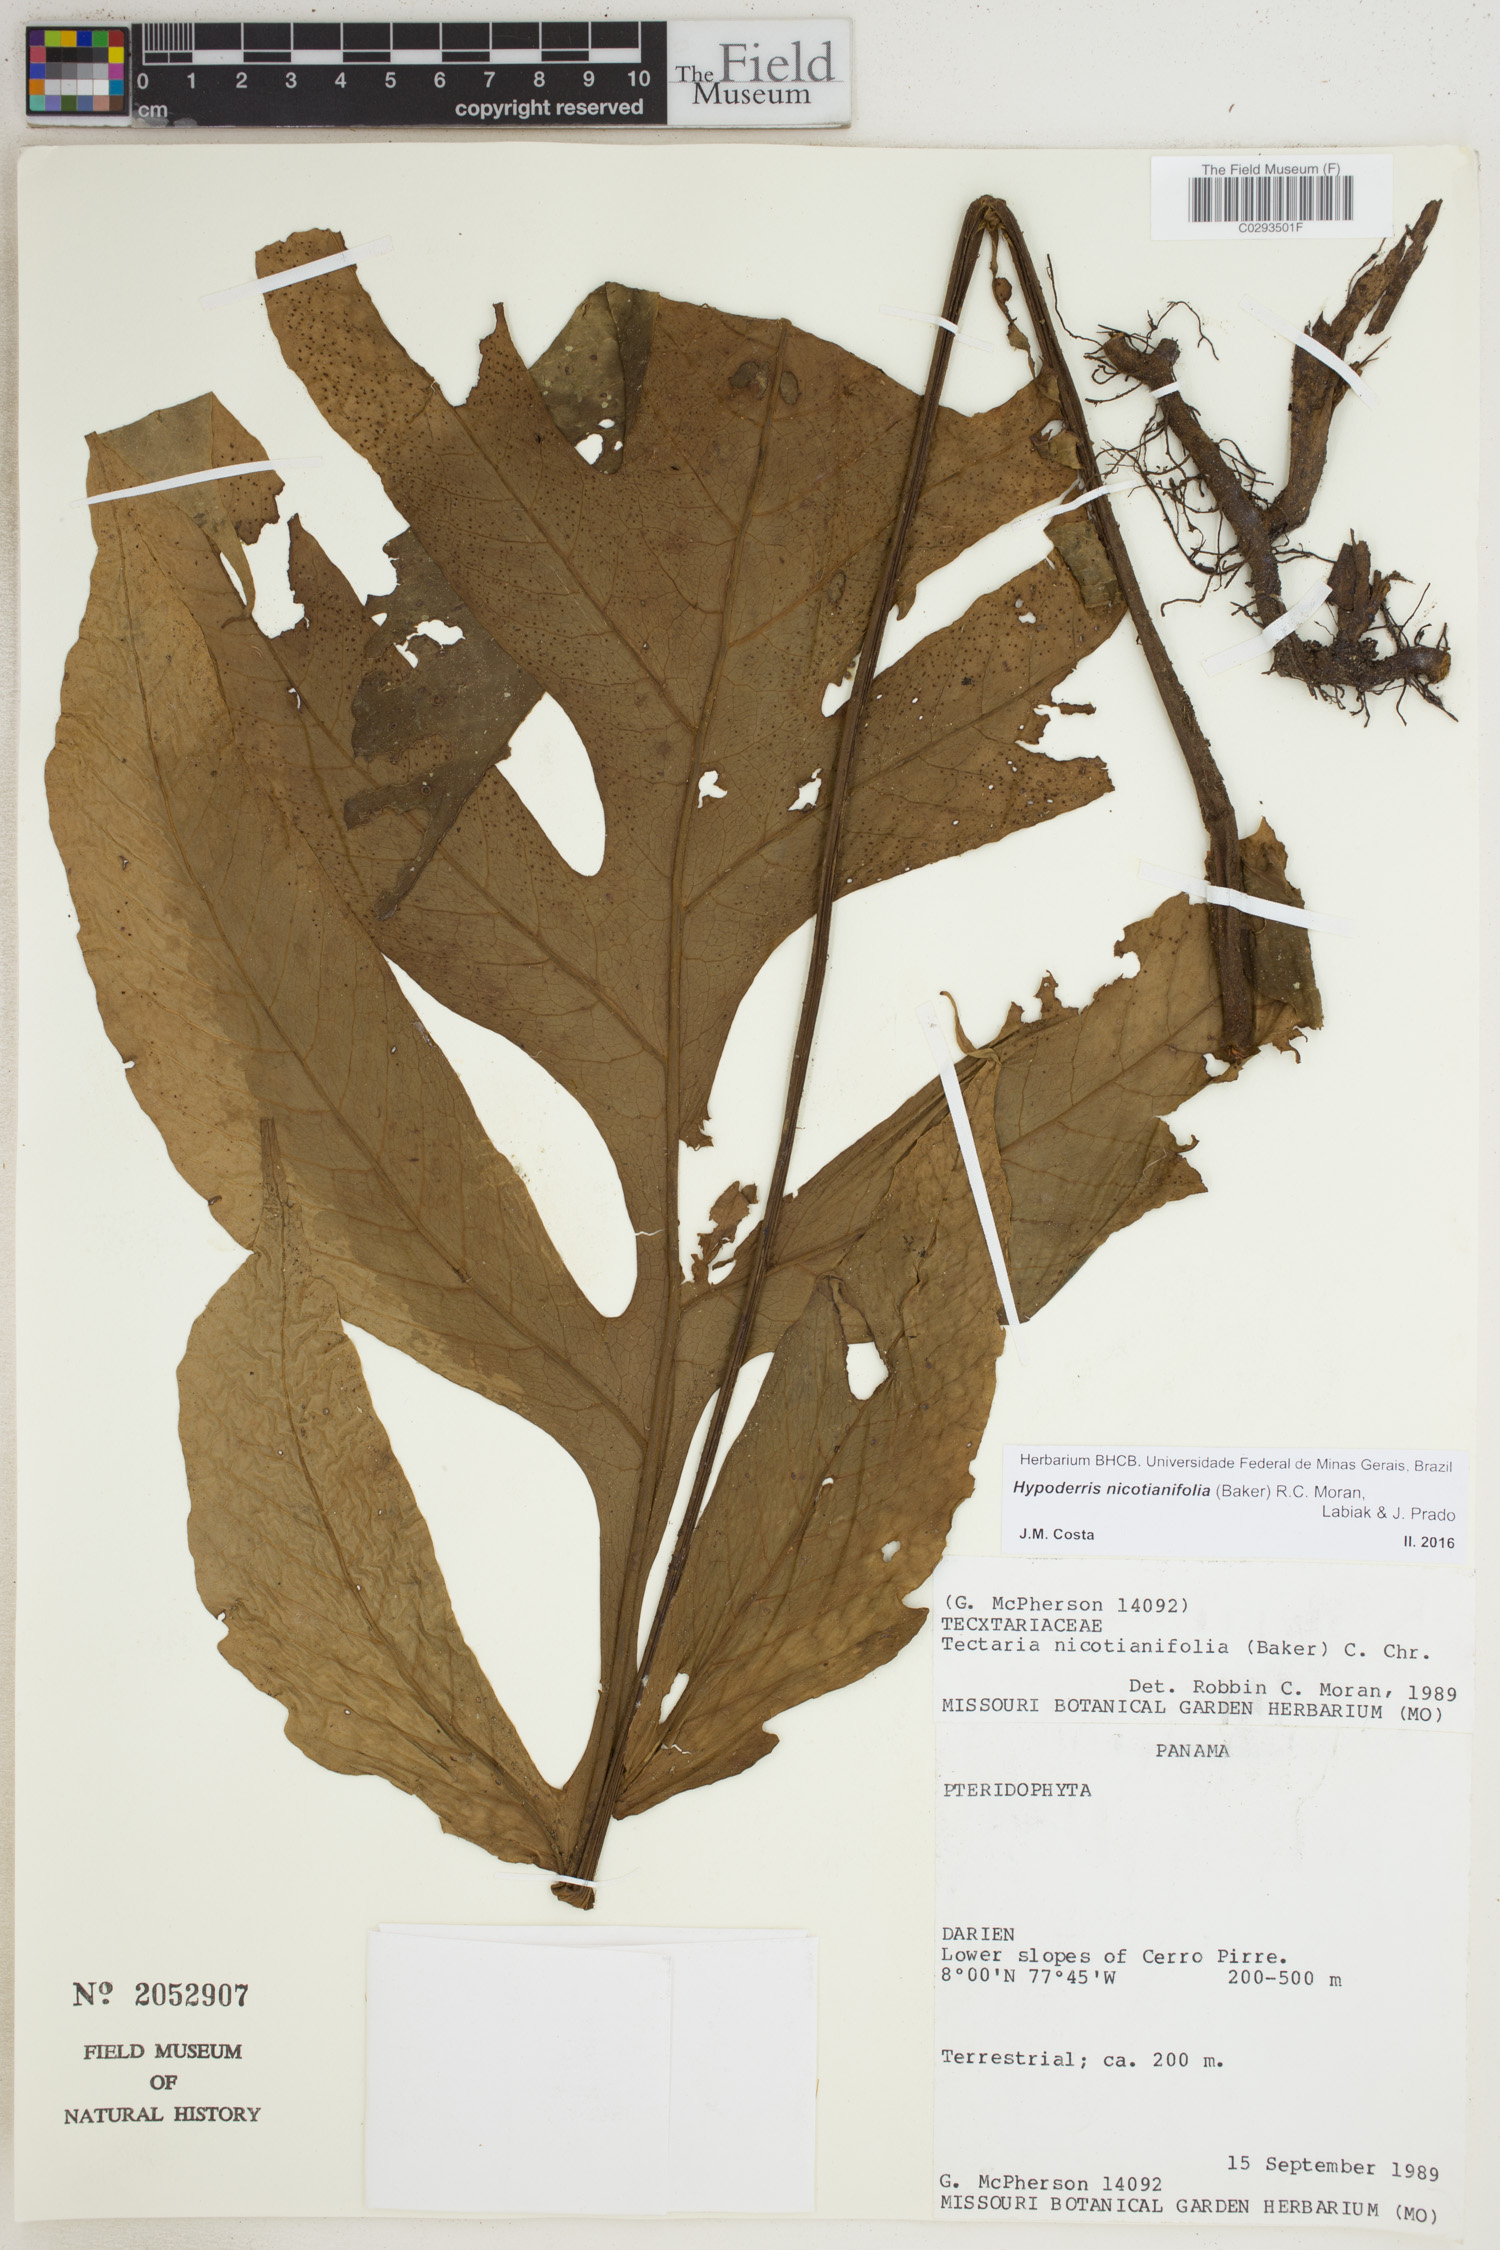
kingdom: Plantae
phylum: Tracheophyta
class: Polypodiopsida
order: Polypodiales
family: Tectariaceae
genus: Hypoderris
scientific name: Hypoderris nicotianifolia
